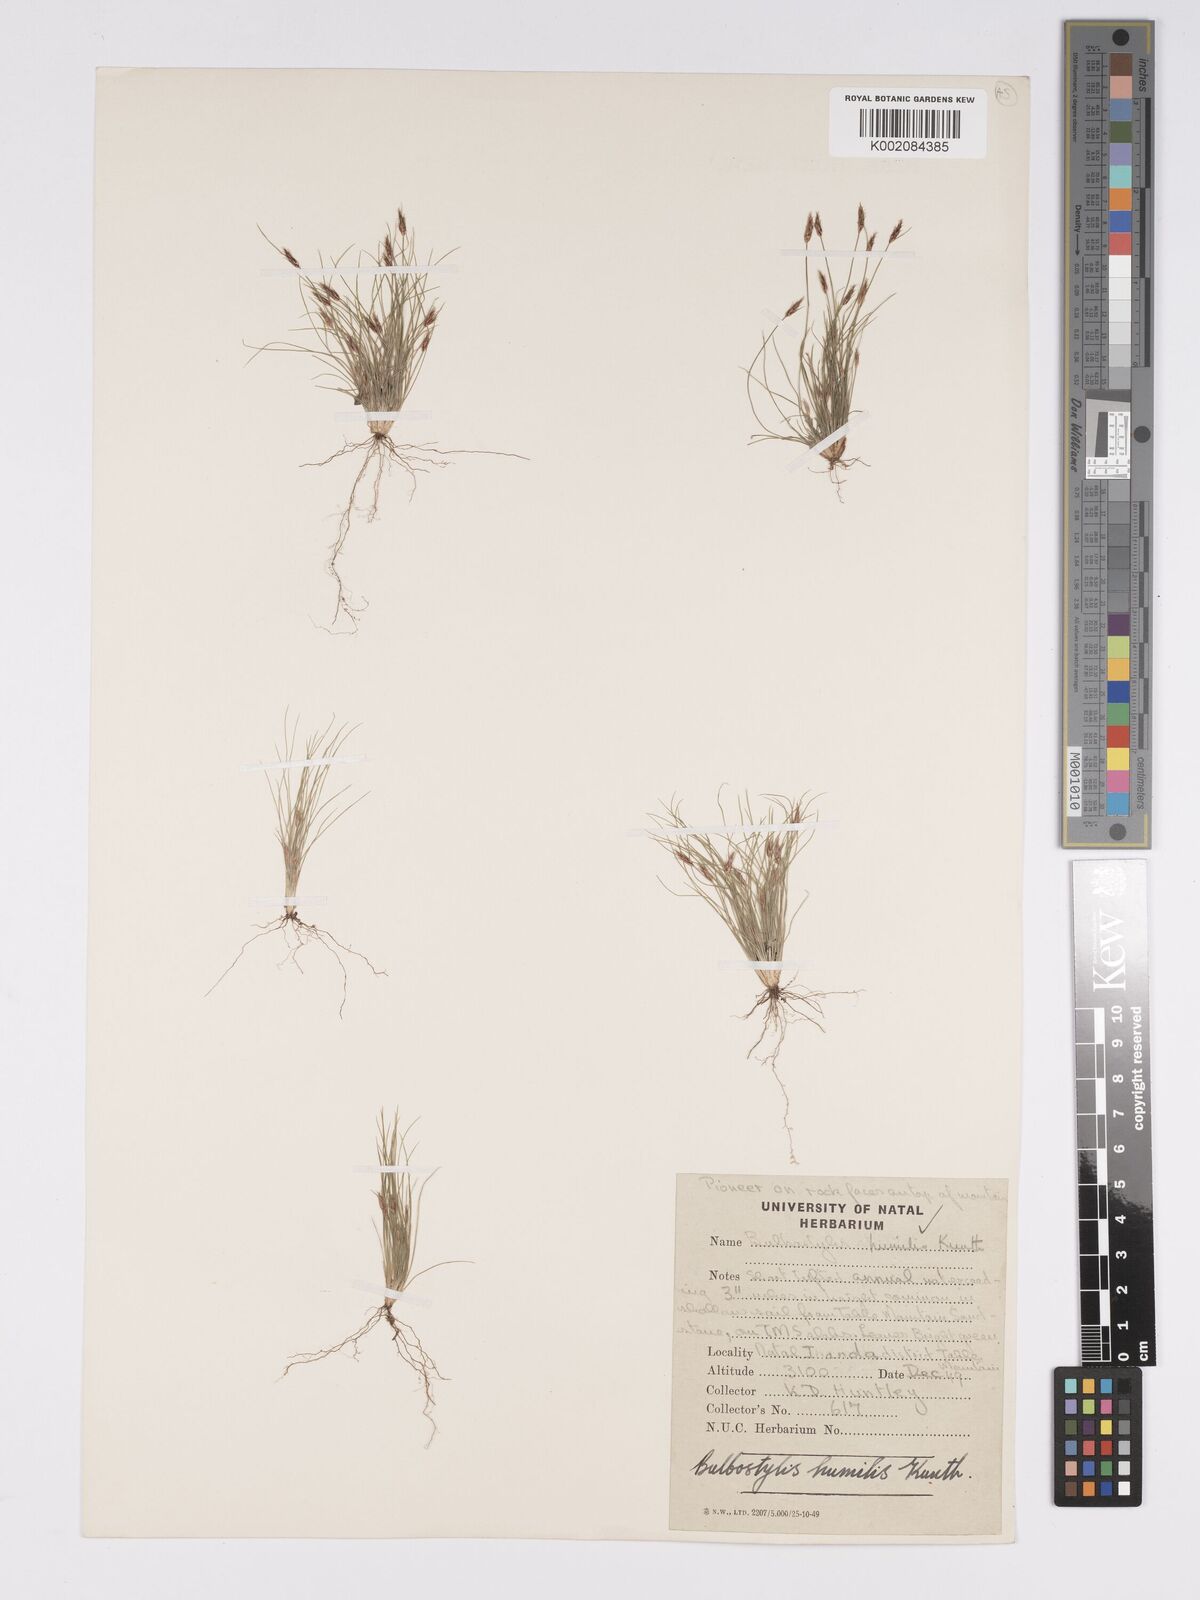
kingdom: Plantae
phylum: Tracheophyta
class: Liliopsida
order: Poales
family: Cyperaceae
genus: Bulbostylis
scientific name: Bulbostylis humilis
